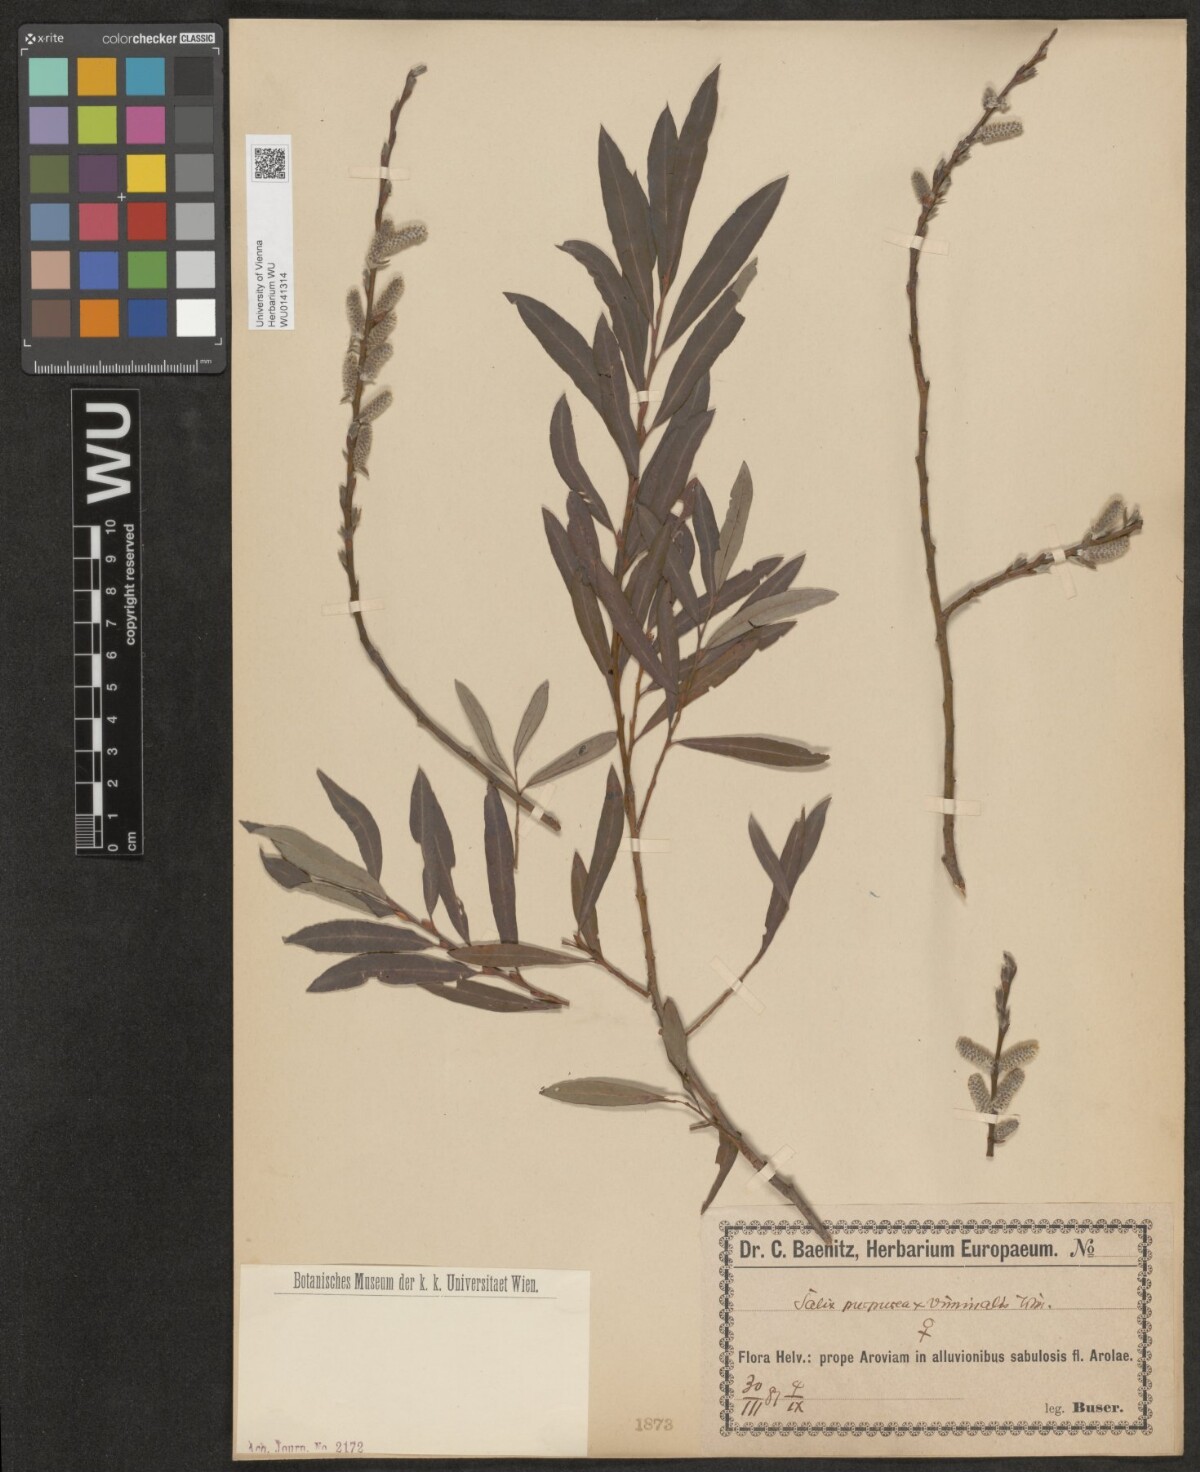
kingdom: Plantae
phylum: Tracheophyta
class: Magnoliopsida
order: Malpighiales
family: Salicaceae
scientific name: Salicaceae
